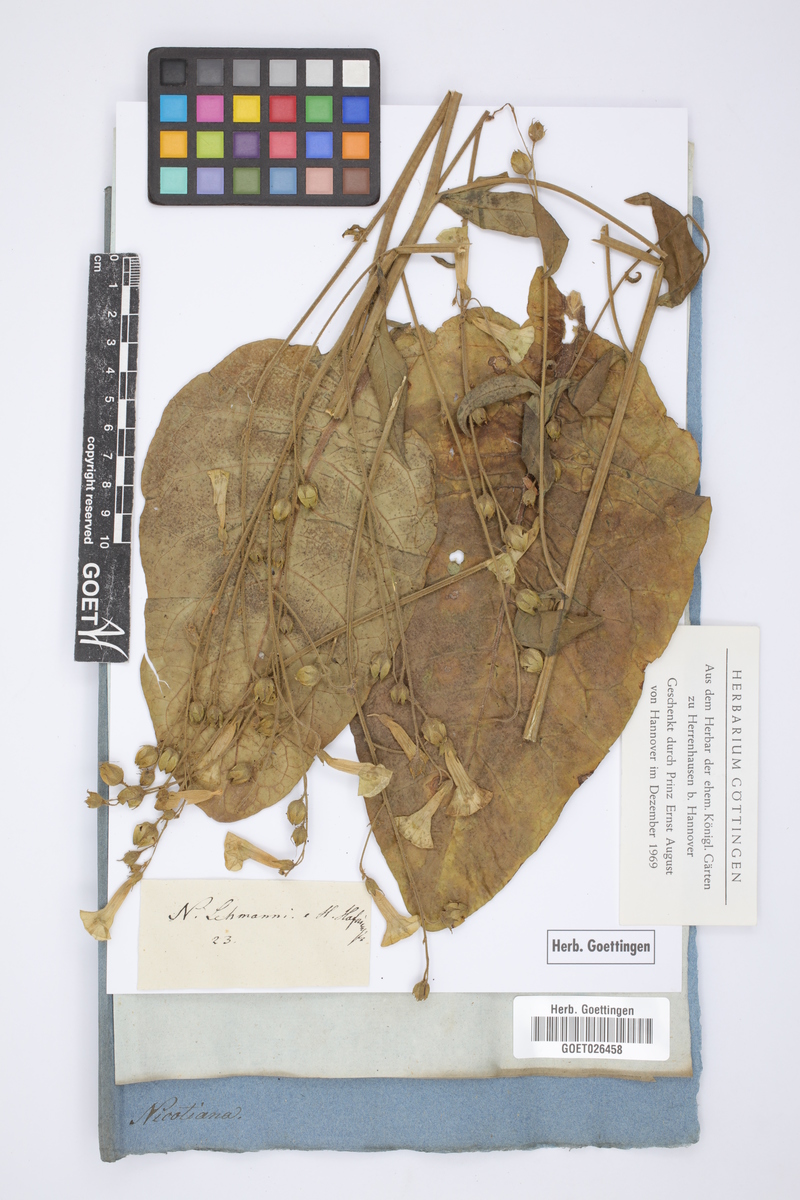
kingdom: Plantae
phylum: Tracheophyta
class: Magnoliopsida
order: Solanales
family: Solanaceae
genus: Nicotiana
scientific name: Nicotiana tabacum
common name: Tobacco
